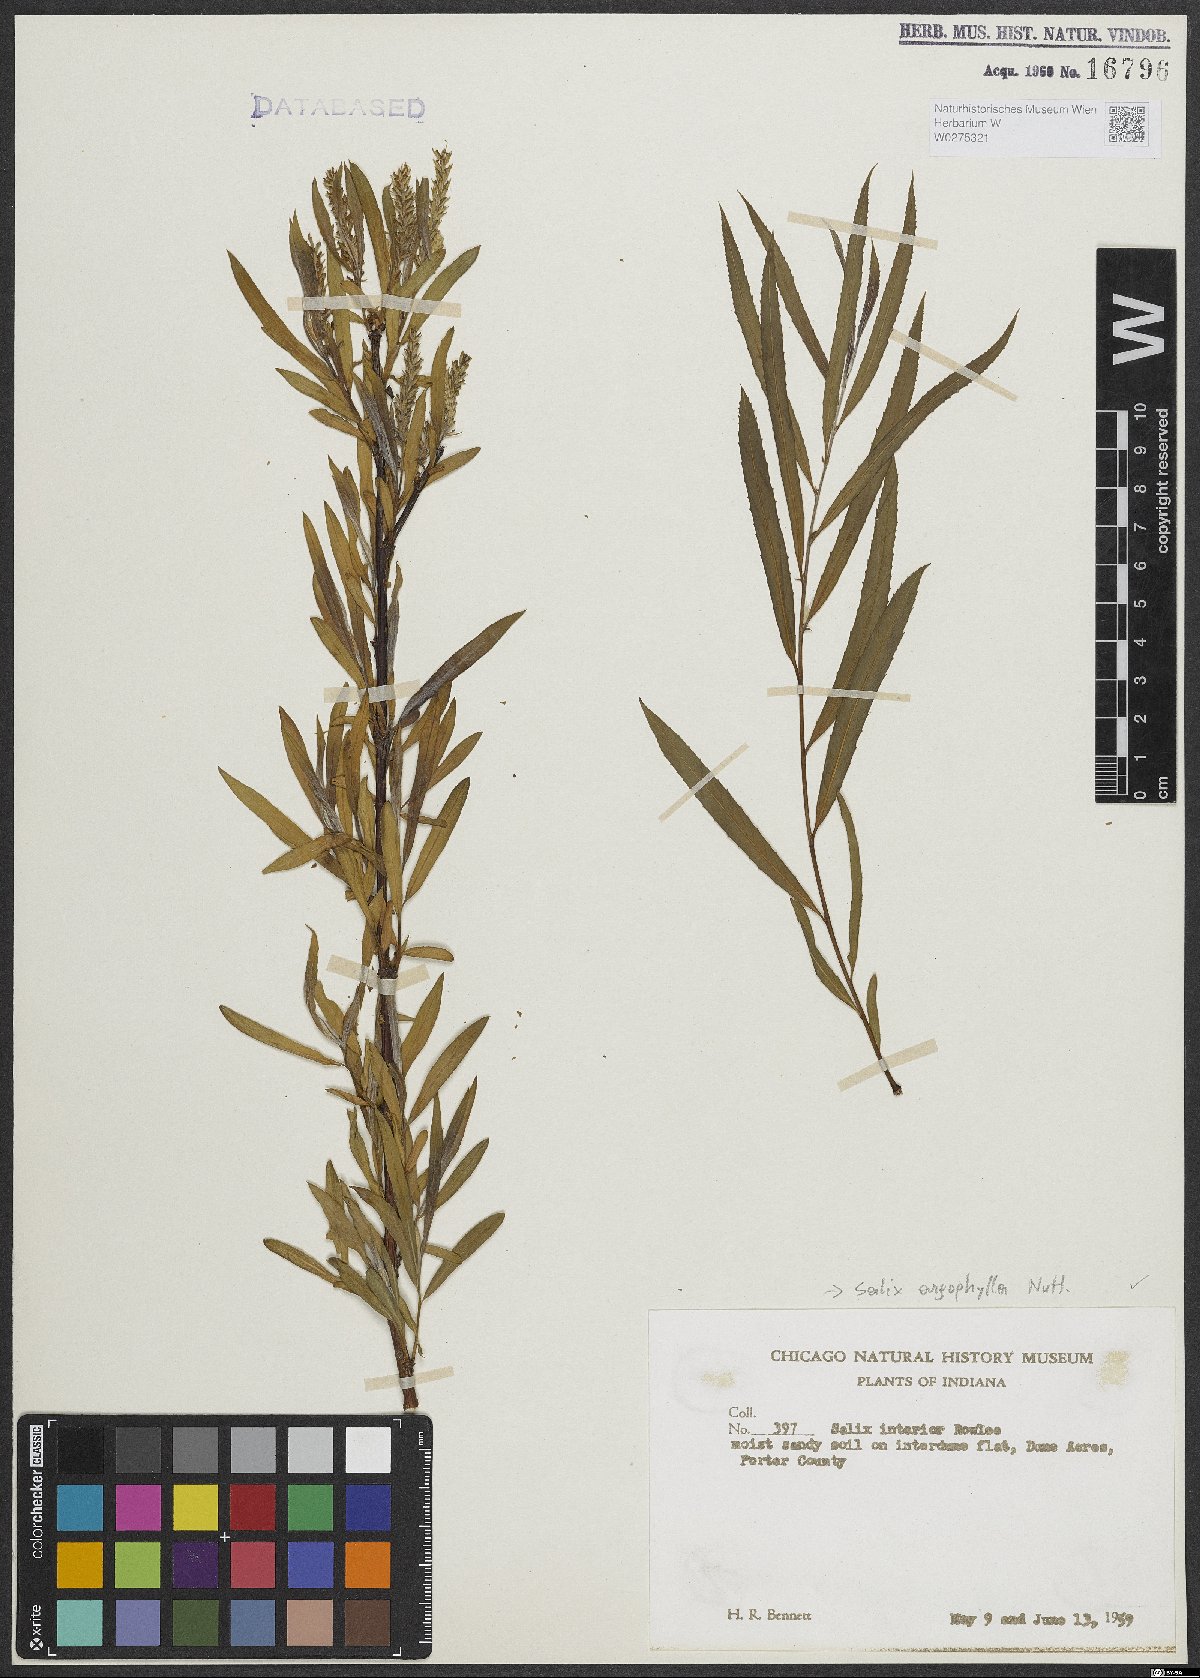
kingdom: Plantae
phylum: Tracheophyta
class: Magnoliopsida
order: Malpighiales
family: Salicaceae
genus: Salix
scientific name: Salix exigua
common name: Coyote willow
